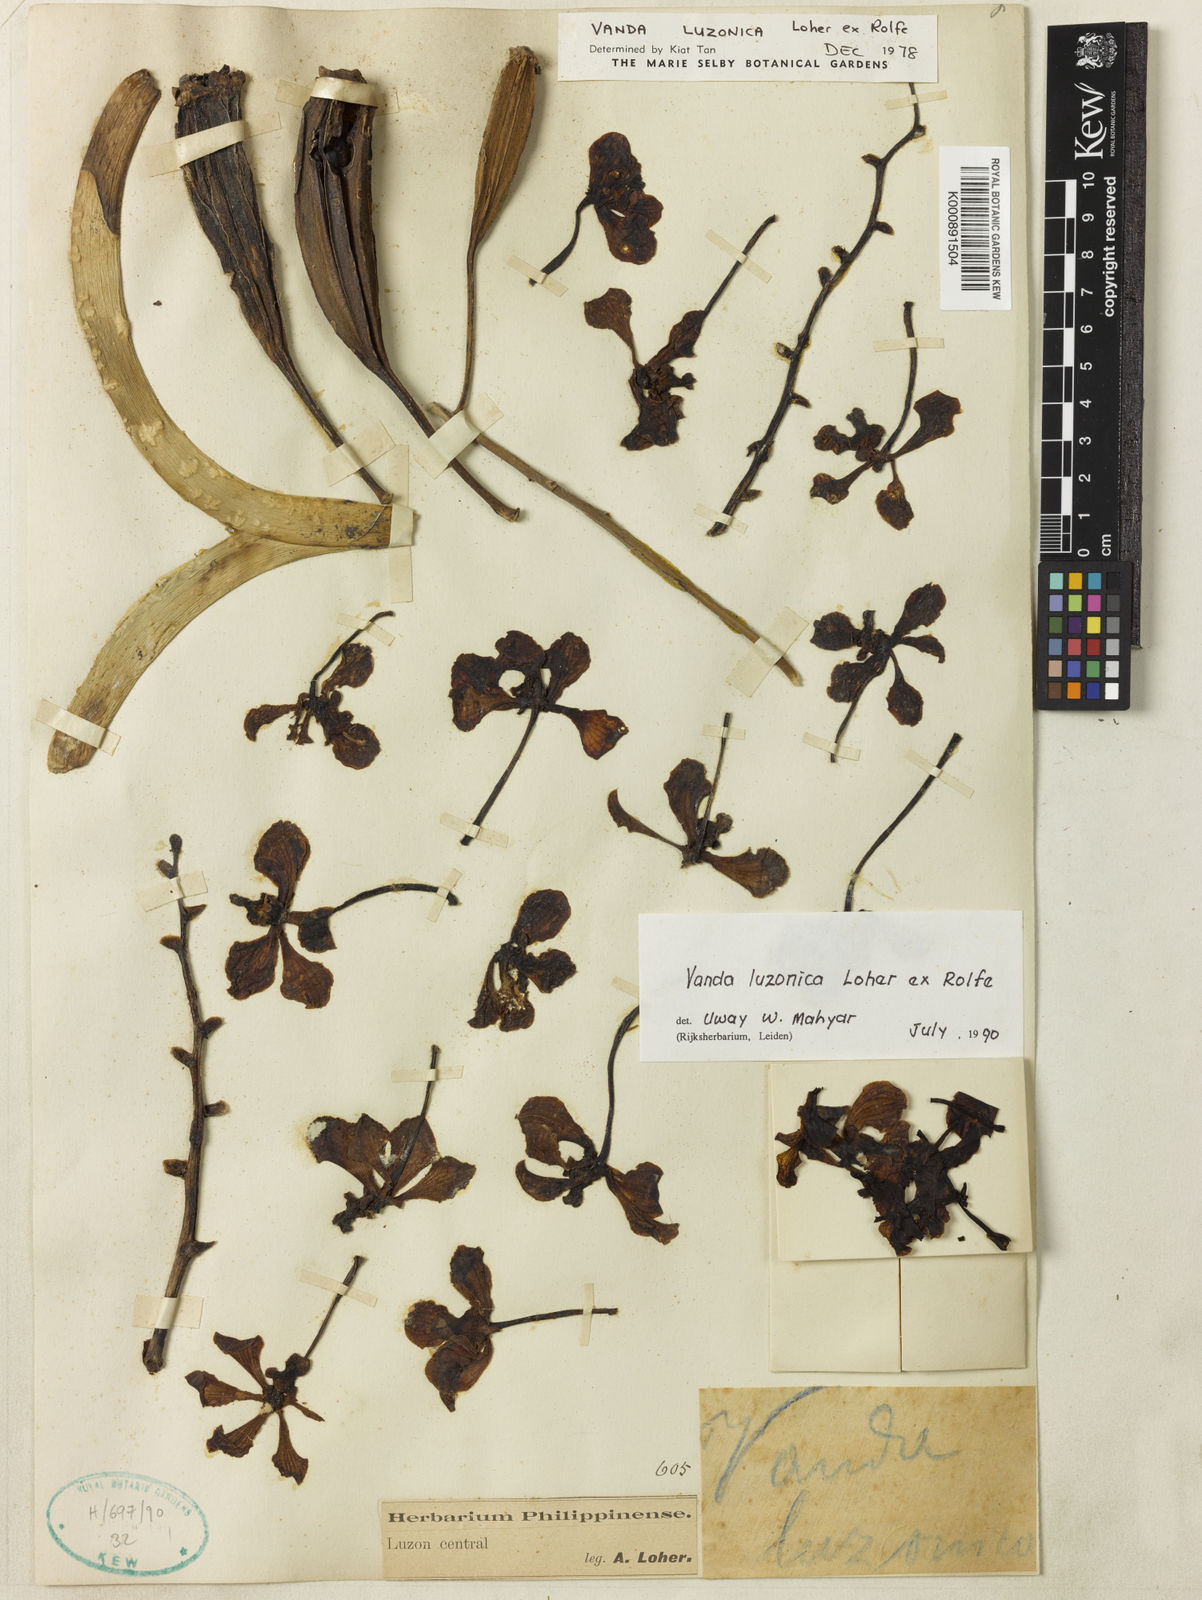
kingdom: Plantae
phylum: Tracheophyta
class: Liliopsida
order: Asparagales
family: Orchidaceae
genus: Vanda
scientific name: Vanda luzonica
